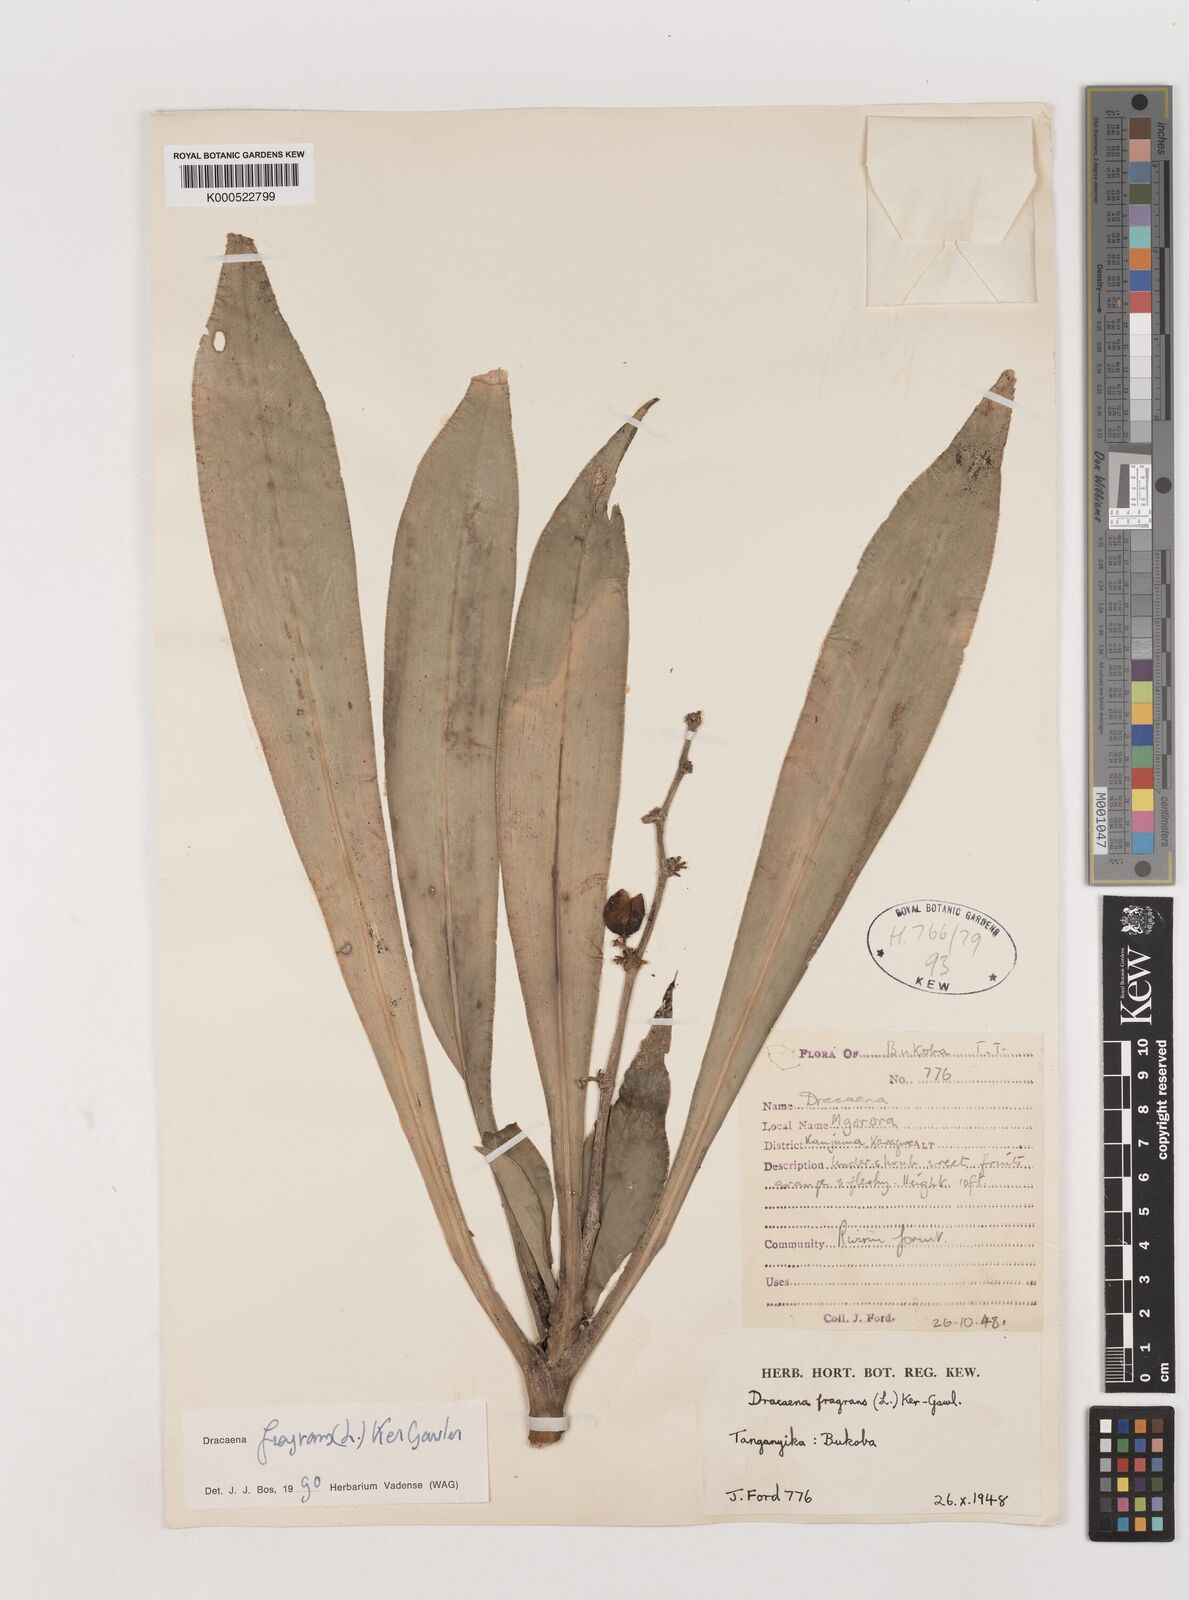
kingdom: Plantae
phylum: Tracheophyta
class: Liliopsida
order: Asparagales
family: Asparagaceae
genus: Dracaena
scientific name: Dracaena fragrans
